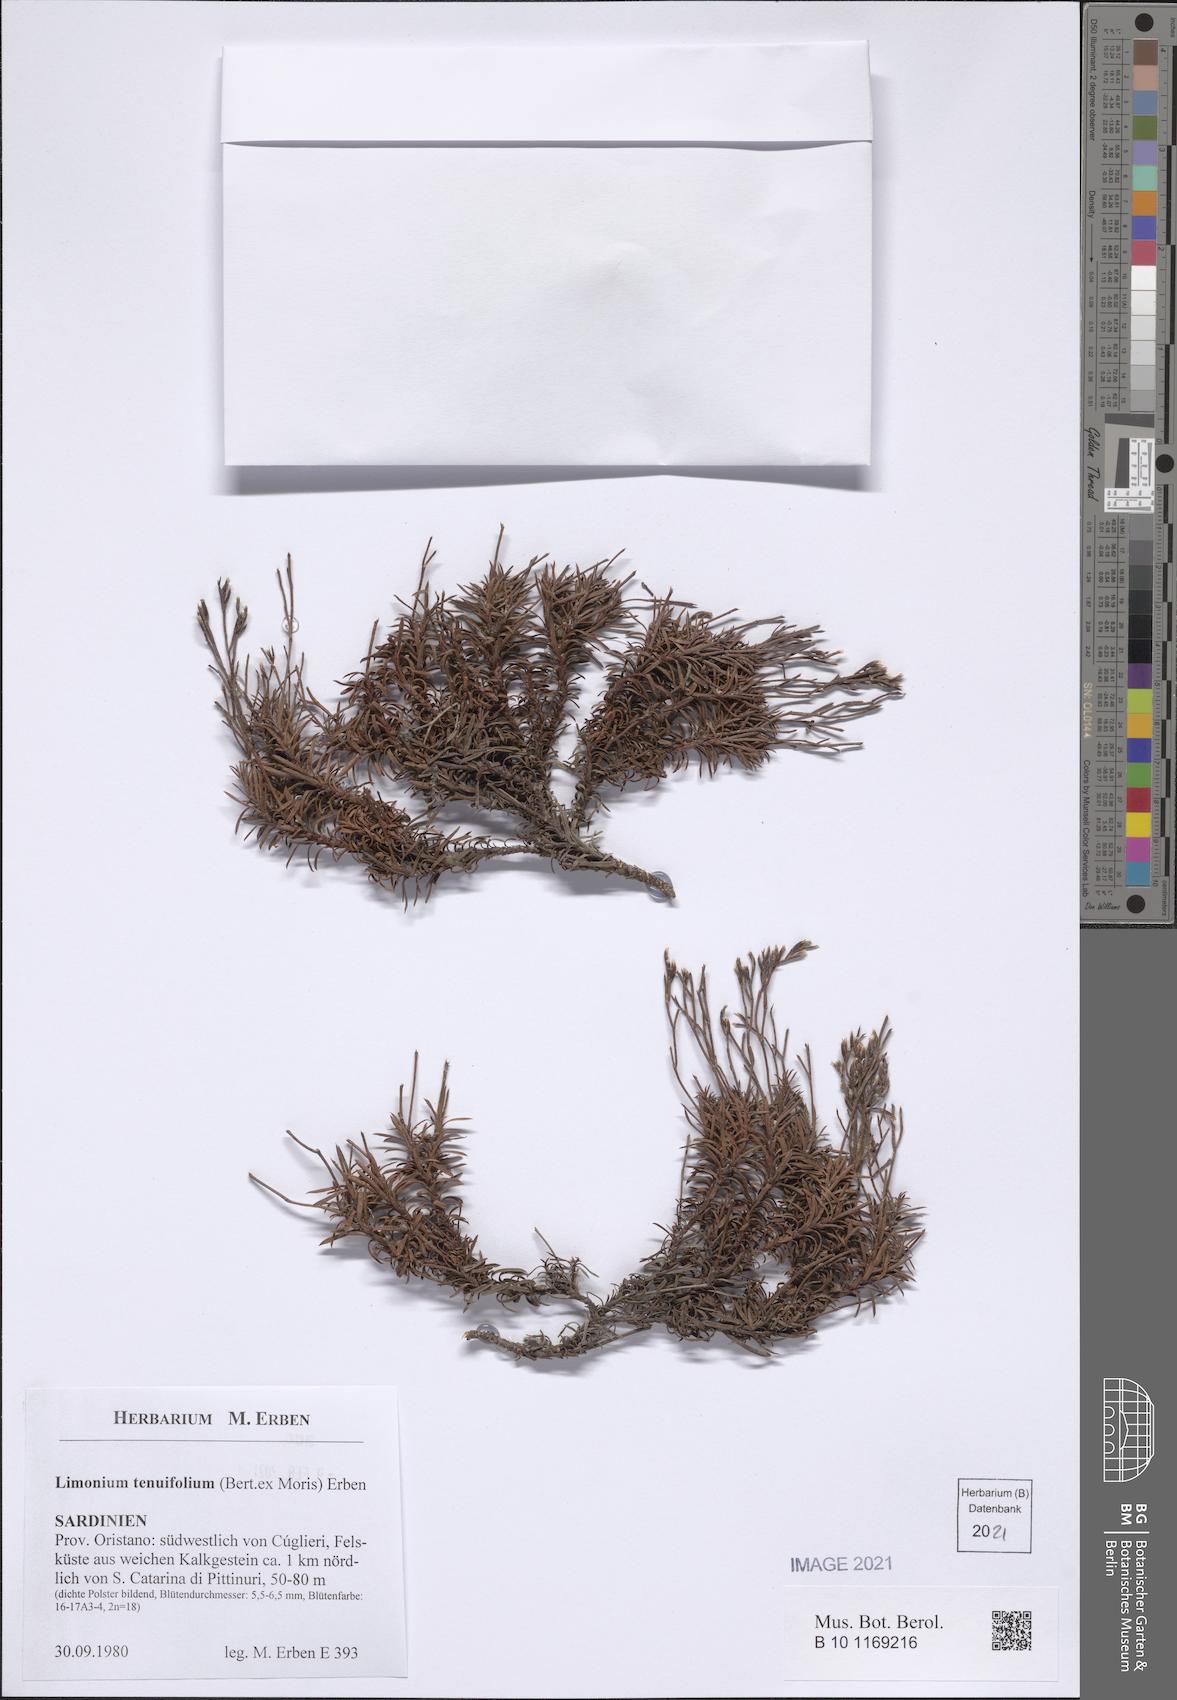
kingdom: Plantae
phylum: Tracheophyta
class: Magnoliopsida
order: Caryophyllales
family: Plumbaginaceae
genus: Limonium
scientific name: Limonium acutifolium
